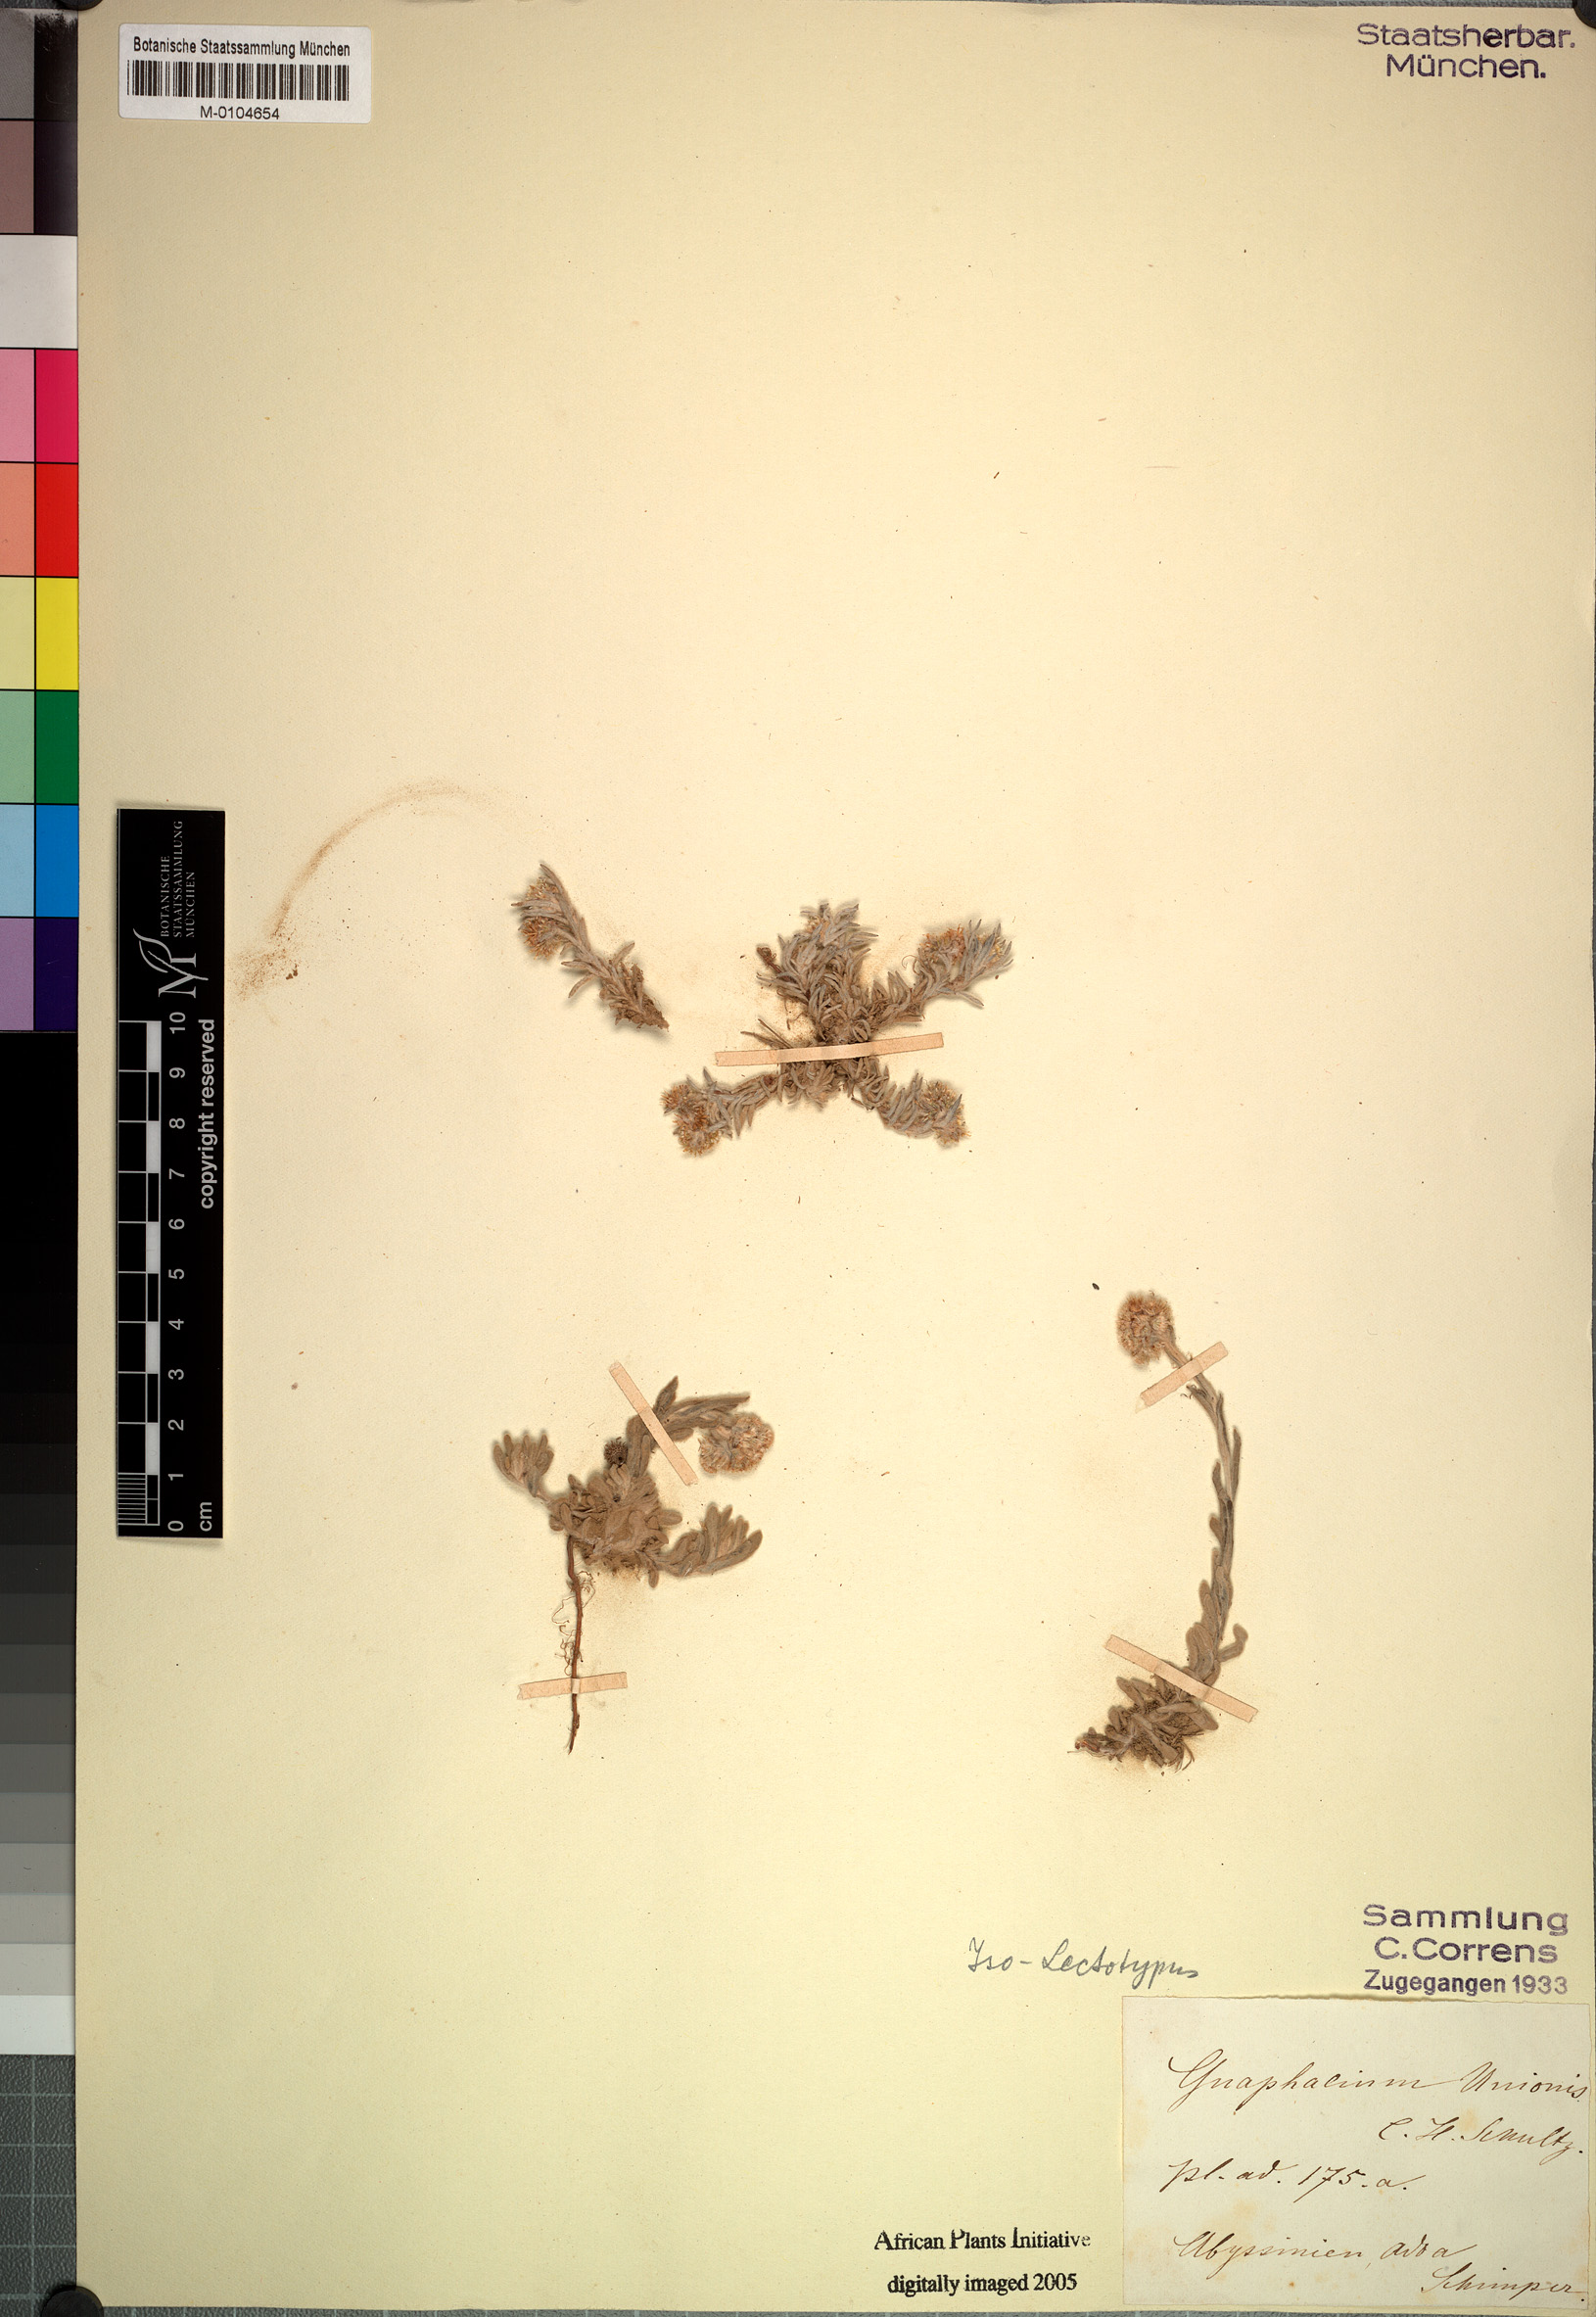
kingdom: Plantae
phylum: Tracheophyta
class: Magnoliopsida
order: Asterales
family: Asteraceae
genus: Gnaphalium
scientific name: Gnaphalium unionis
